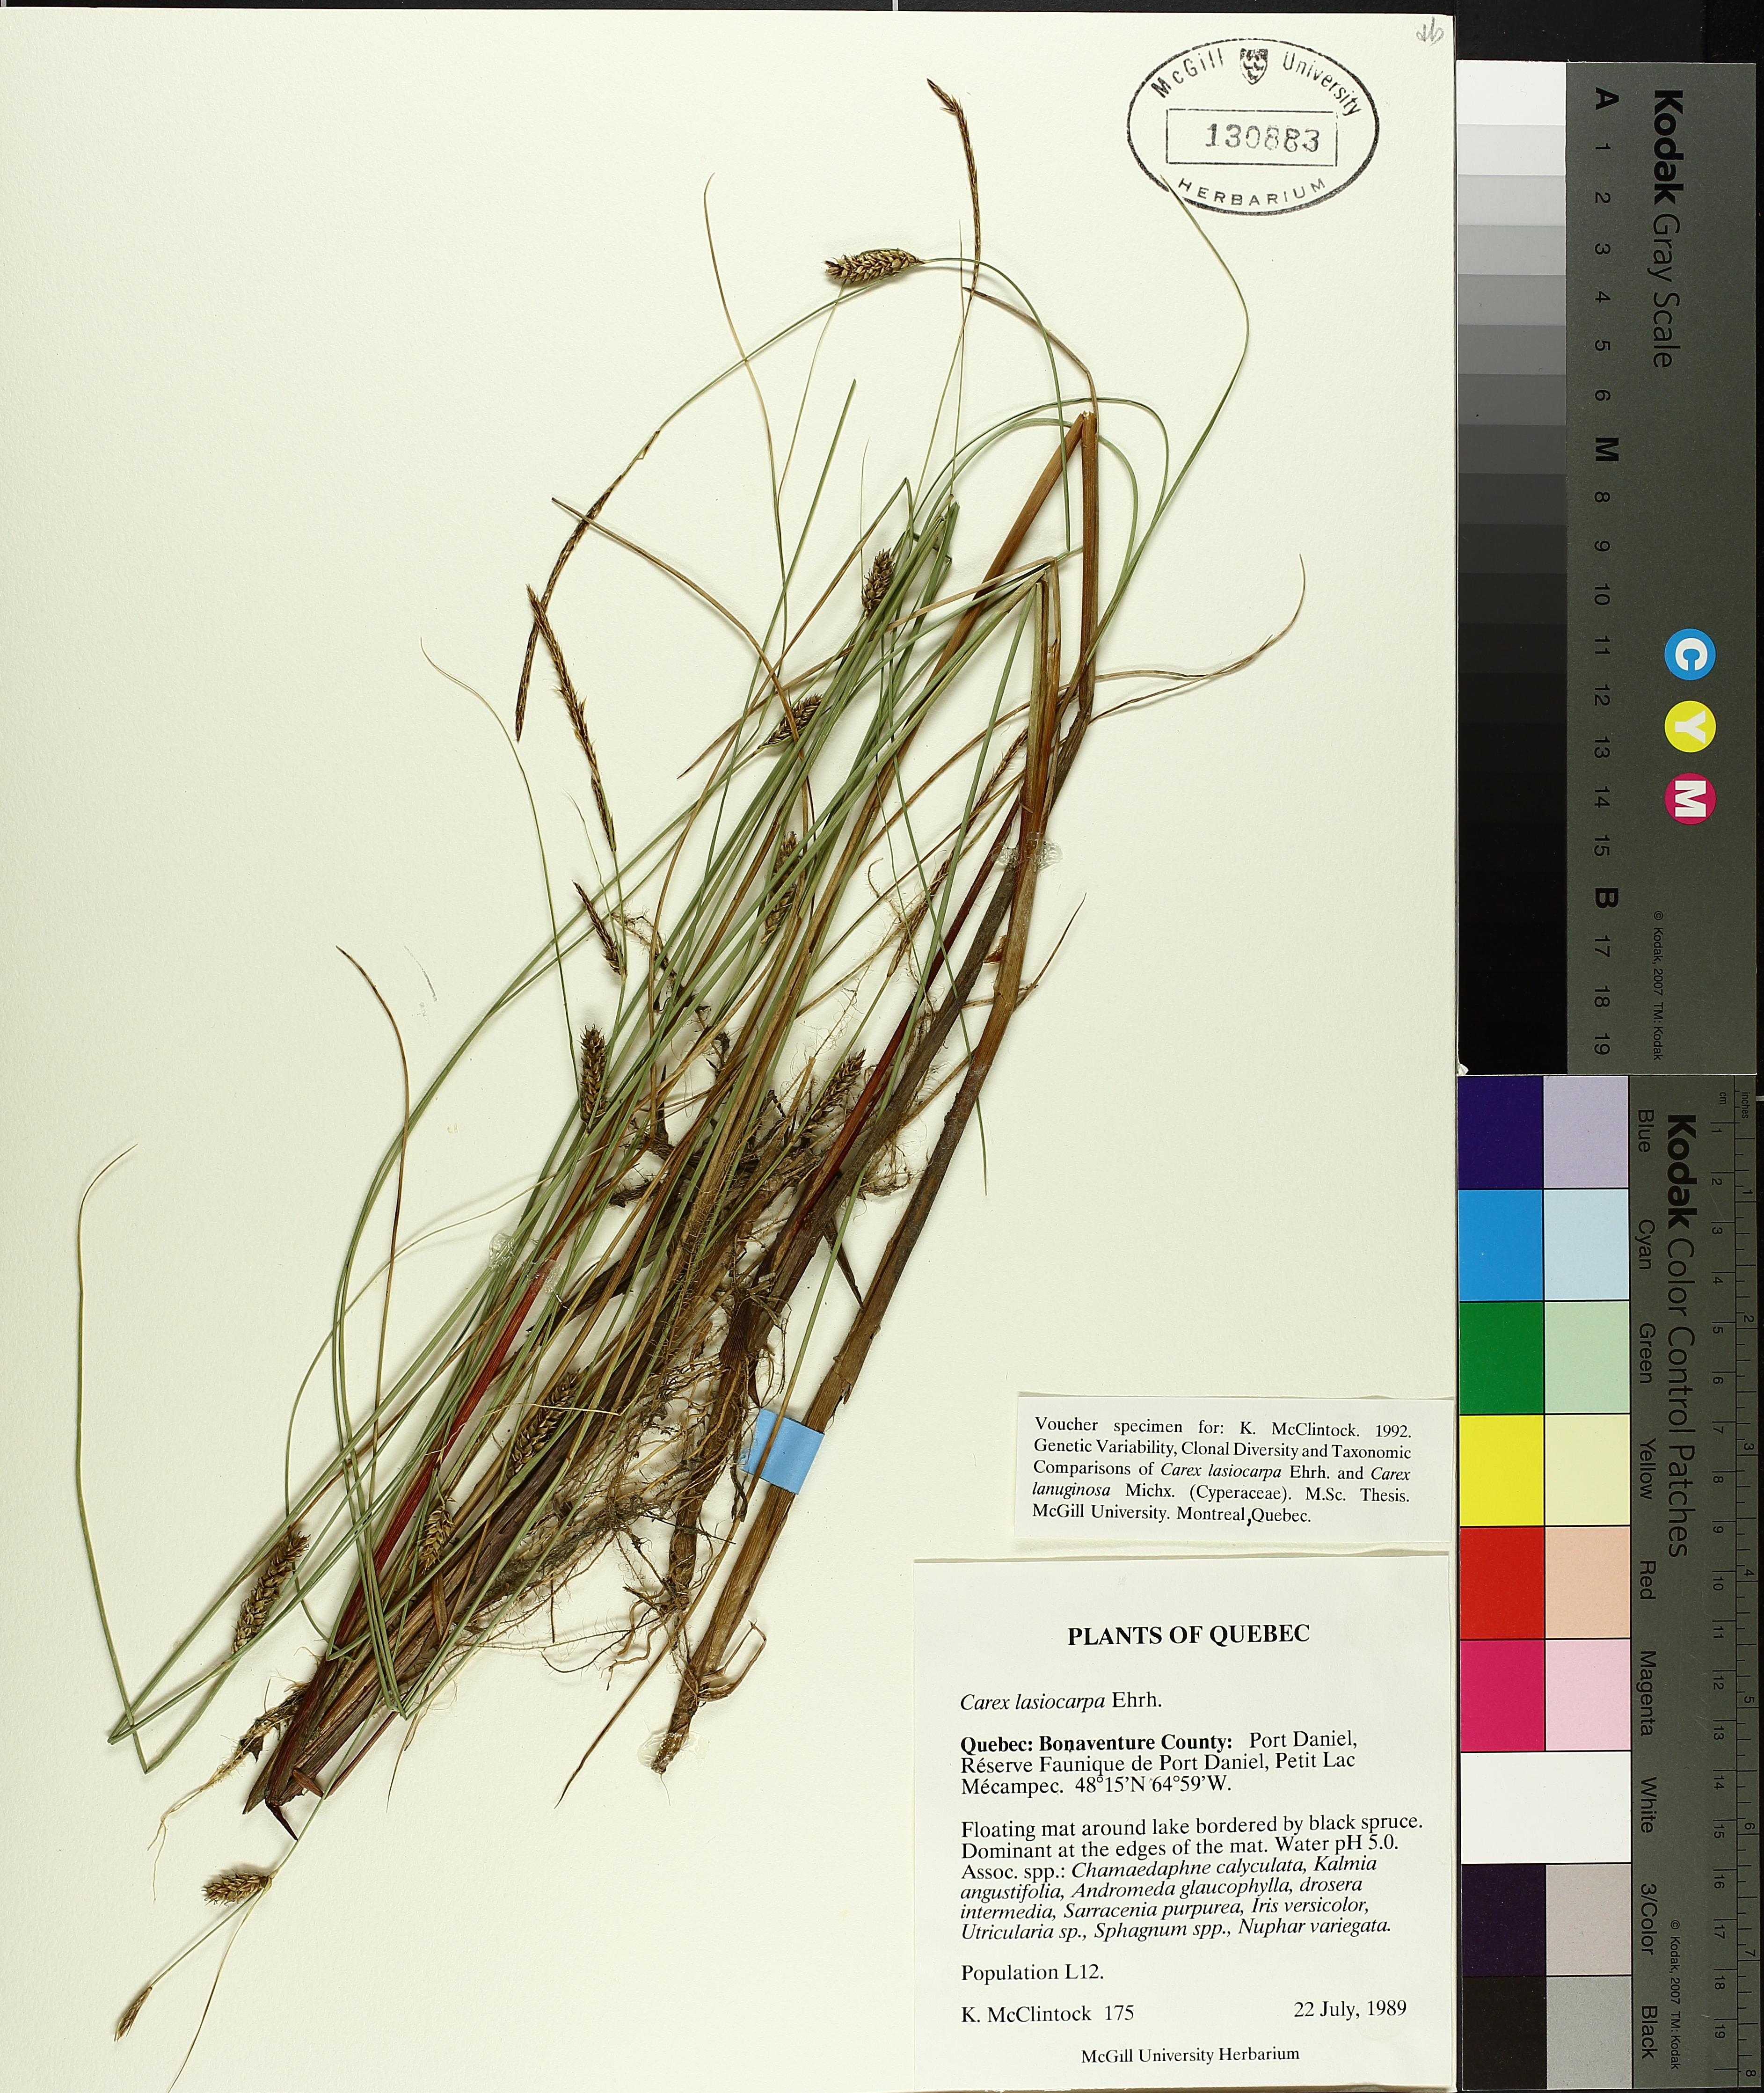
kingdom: Plantae
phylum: Tracheophyta
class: Liliopsida
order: Poales
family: Cyperaceae
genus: Carex
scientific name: Carex lasiocarpa
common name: Slender sedge
